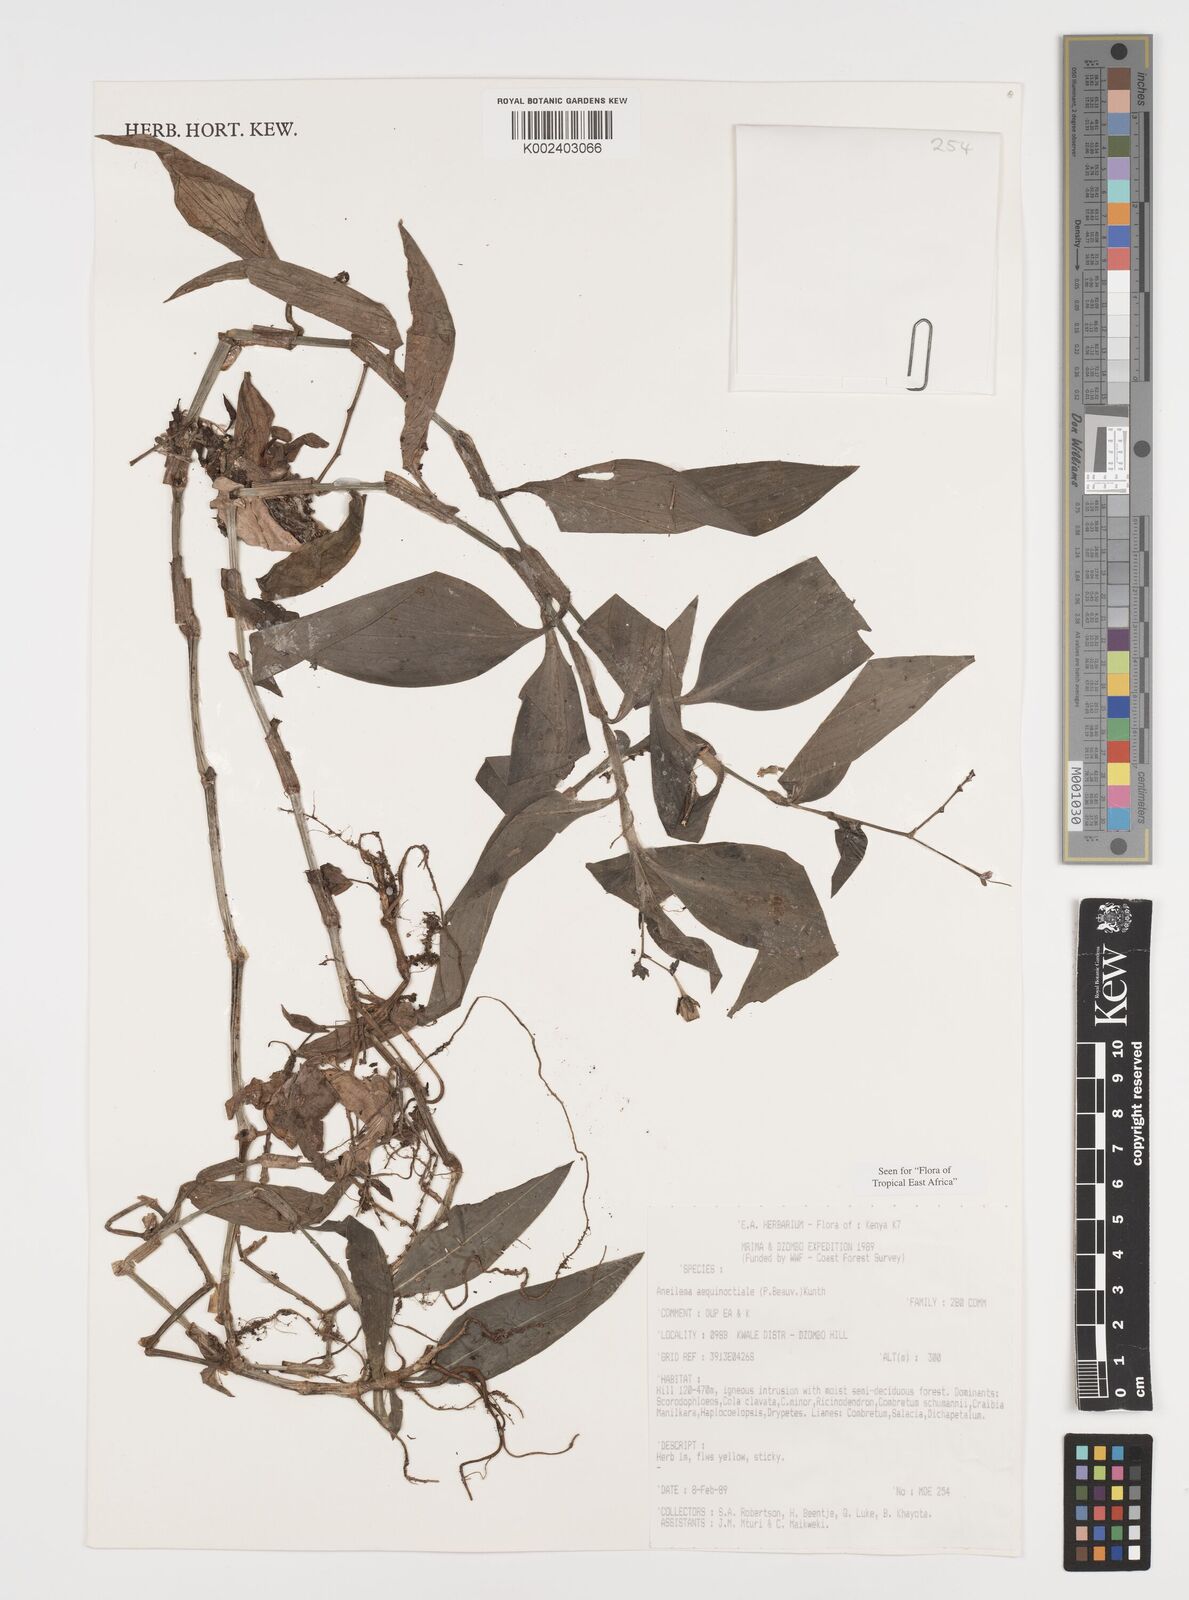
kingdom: Plantae
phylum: Tracheophyta
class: Liliopsida
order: Commelinales
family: Commelinaceae
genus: Aneilema
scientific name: Aneilema aequinoctiale
